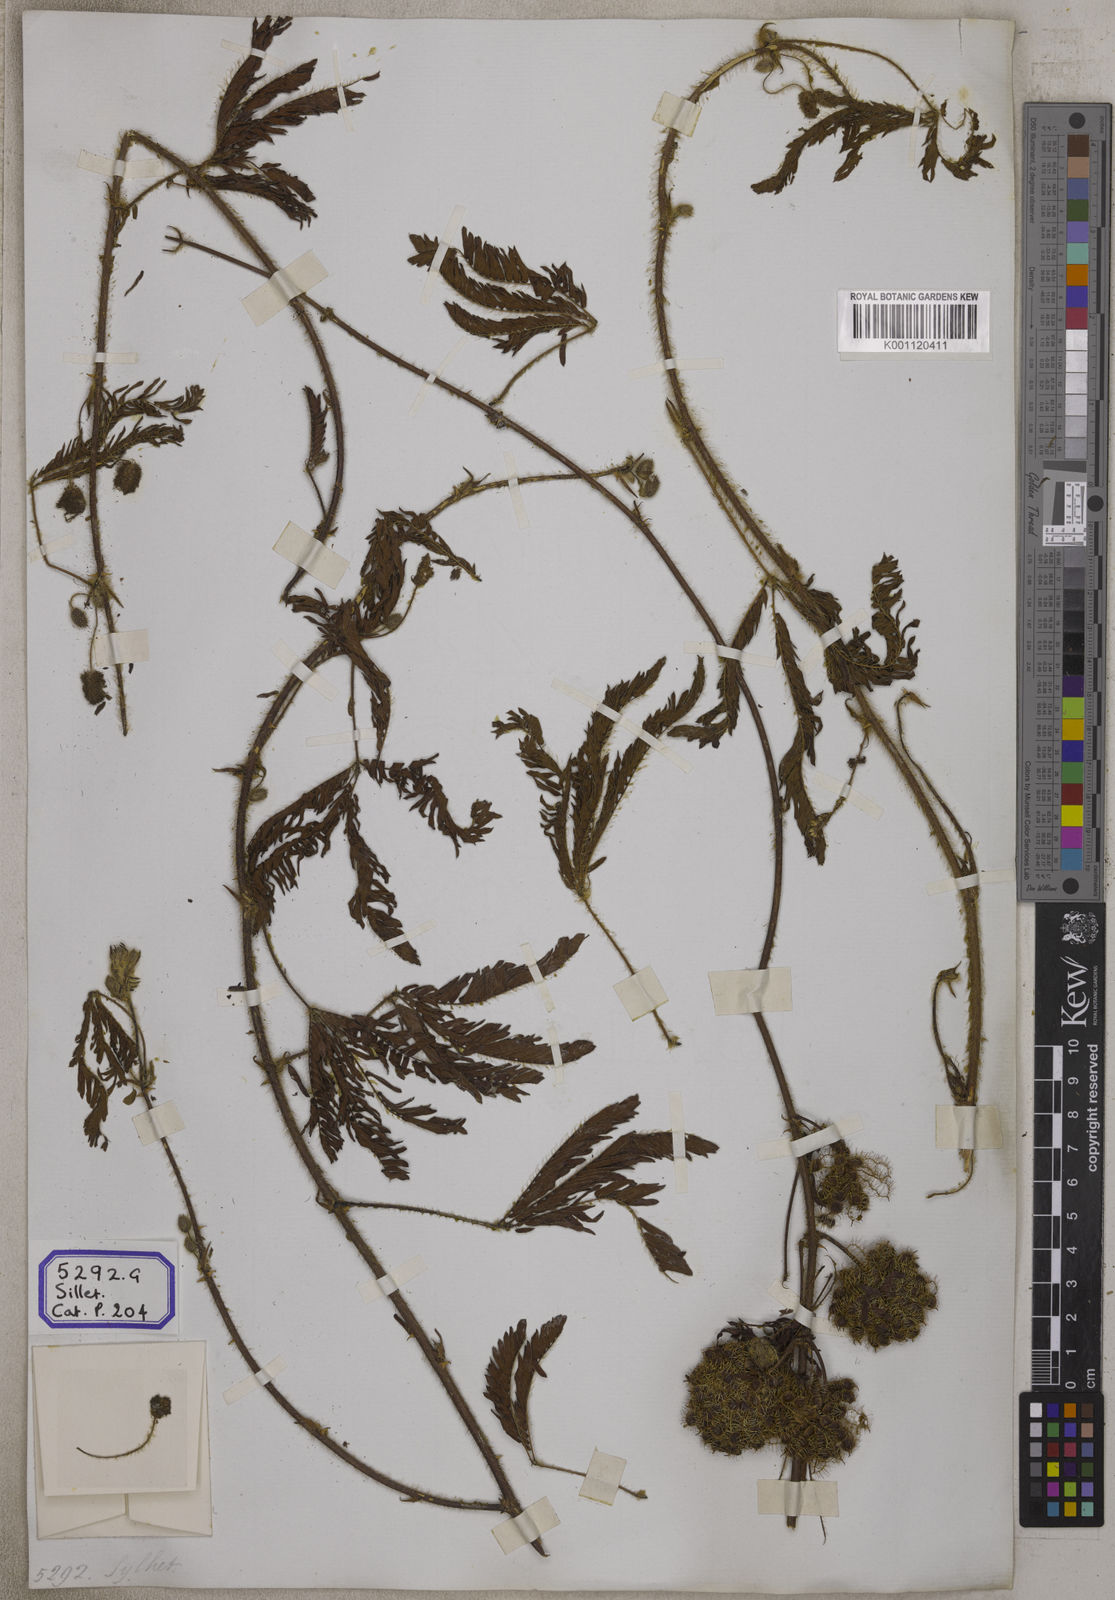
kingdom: Plantae
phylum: Tracheophyta
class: Magnoliopsida
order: Fabales
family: Fabaceae
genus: Mimosa
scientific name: Mimosa pudica
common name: Sensitive plant
